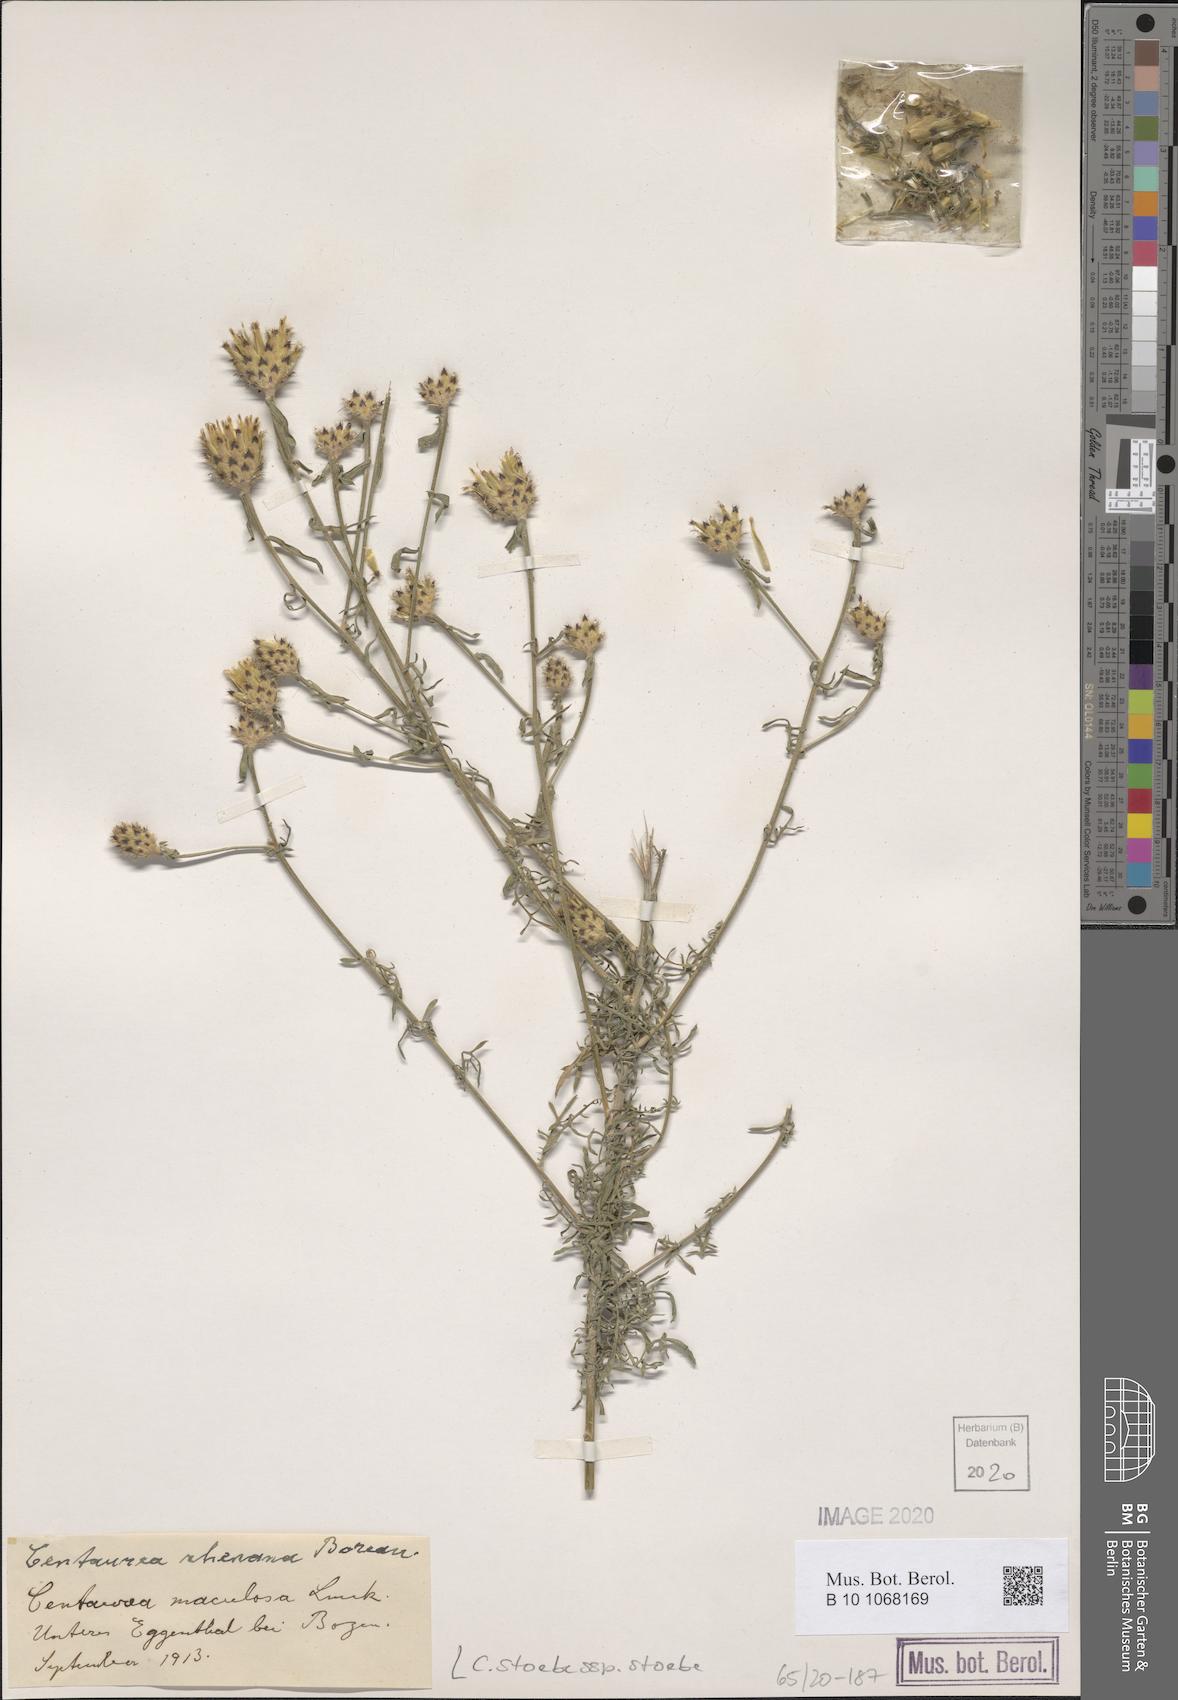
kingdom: Plantae
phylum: Tracheophyta
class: Magnoliopsida
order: Asterales
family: Asteraceae
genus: Centaurea
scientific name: Centaurea stoebe
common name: Spotted knapweed
